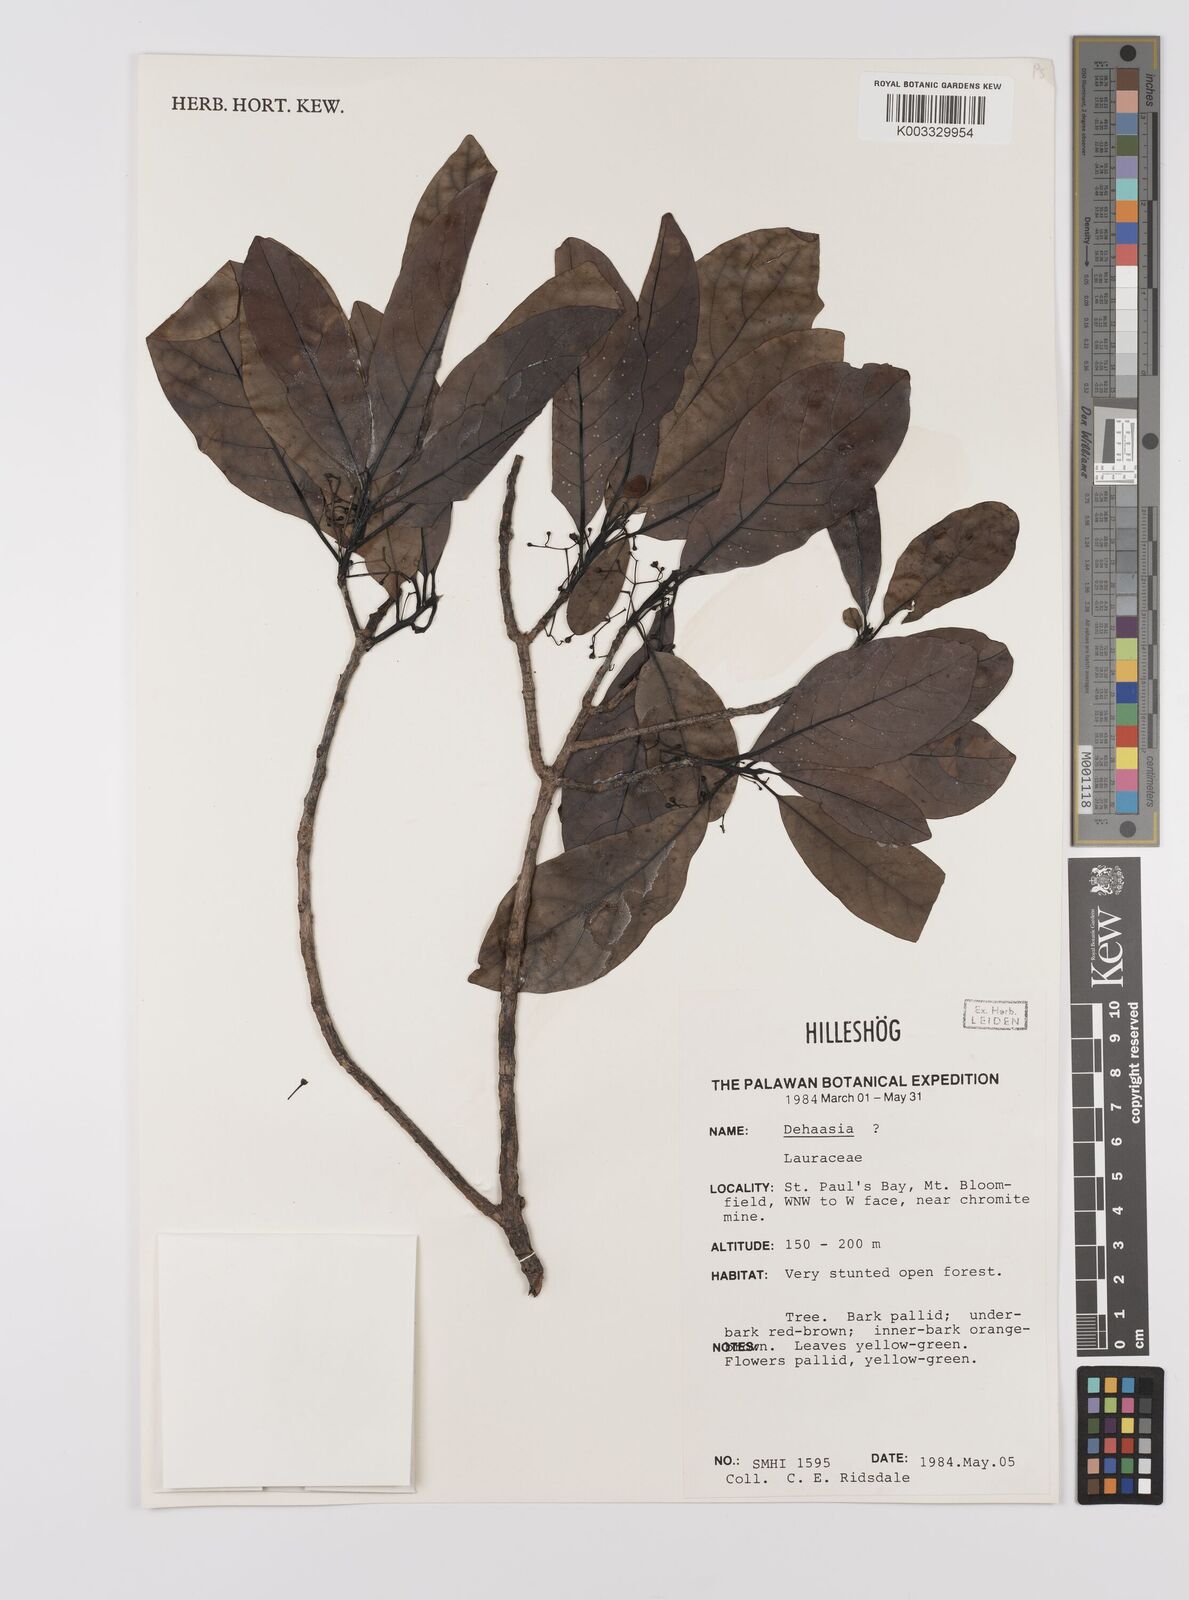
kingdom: Plantae
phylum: Tracheophyta
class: Magnoliopsida
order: Laurales
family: Lauraceae
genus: Dehaasia
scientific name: Dehaasia
